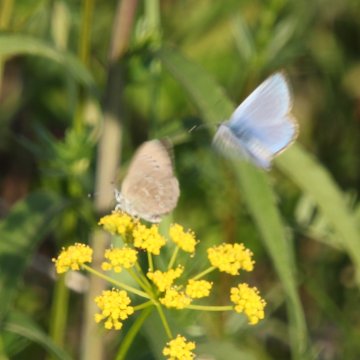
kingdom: Animalia
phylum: Arthropoda
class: Insecta
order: Lepidoptera
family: Lycaenidae
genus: Glaucopsyche
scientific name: Glaucopsyche lygdamus
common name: Silvery Blue
